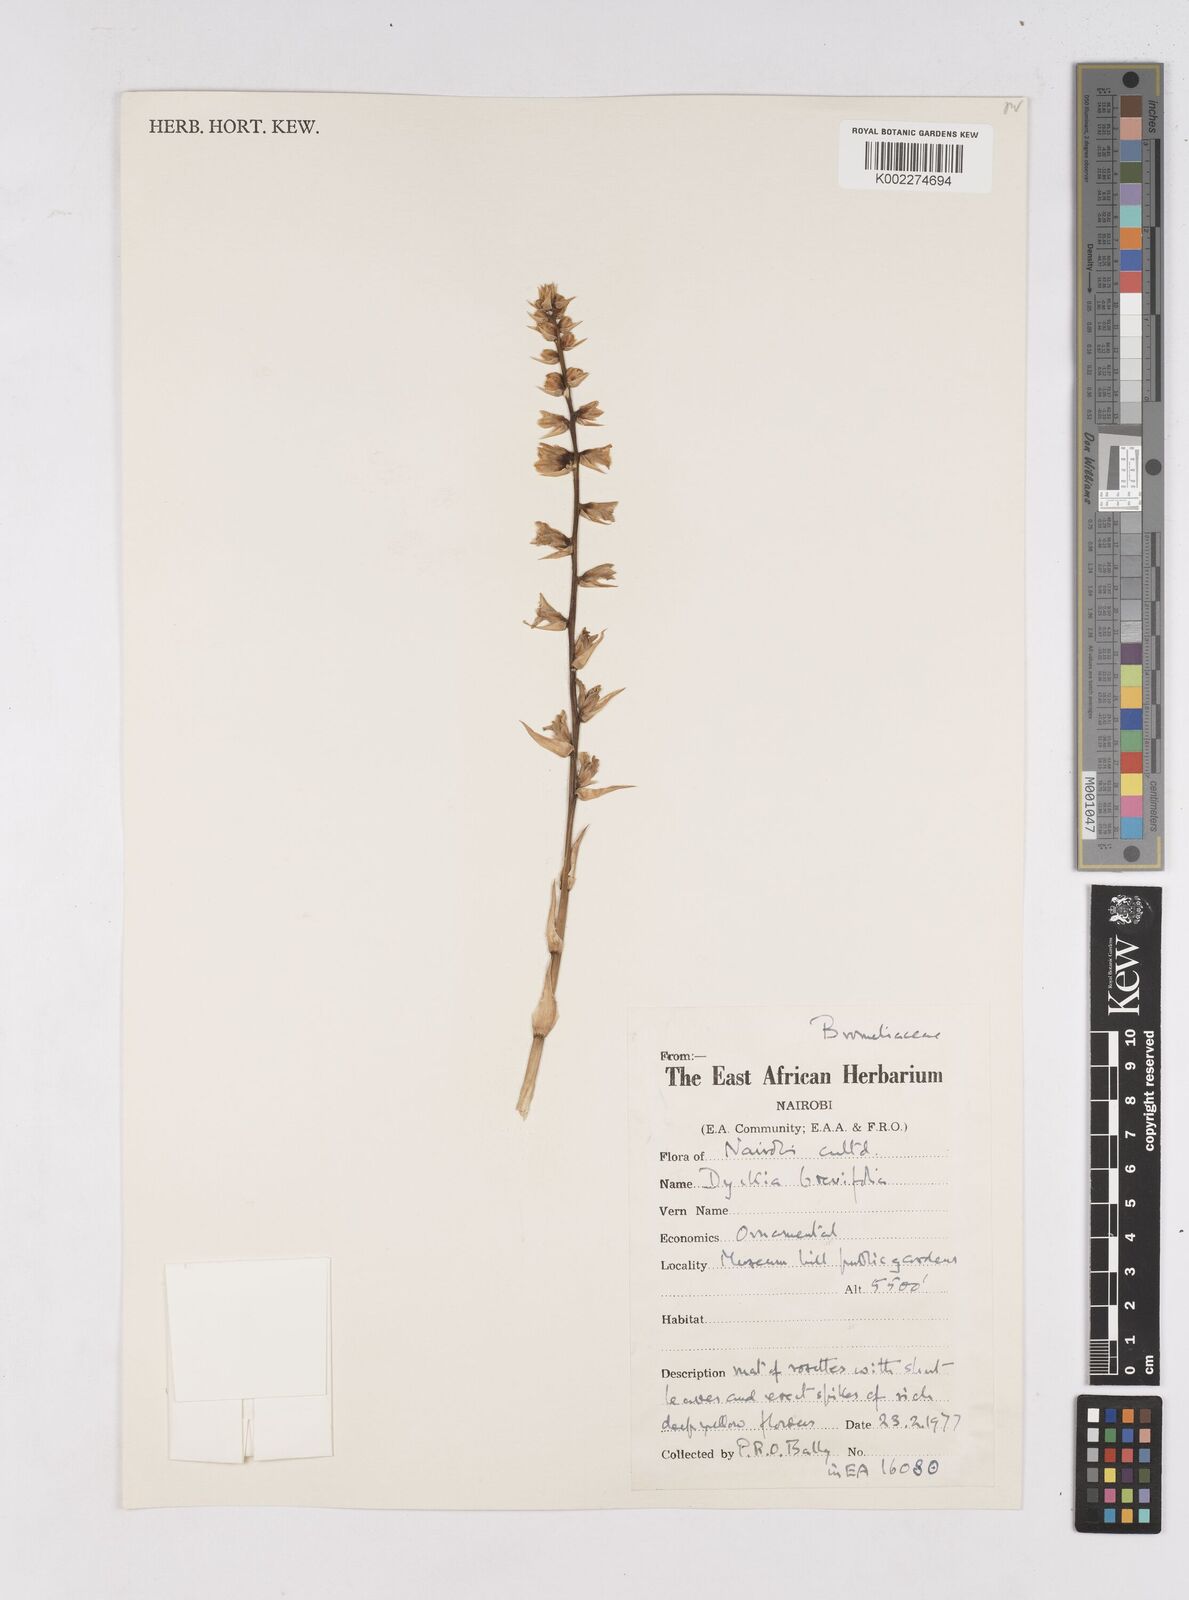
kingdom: Plantae
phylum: Tracheophyta
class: Liliopsida
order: Poales
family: Bromeliaceae
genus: Dyckia
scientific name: Dyckia
